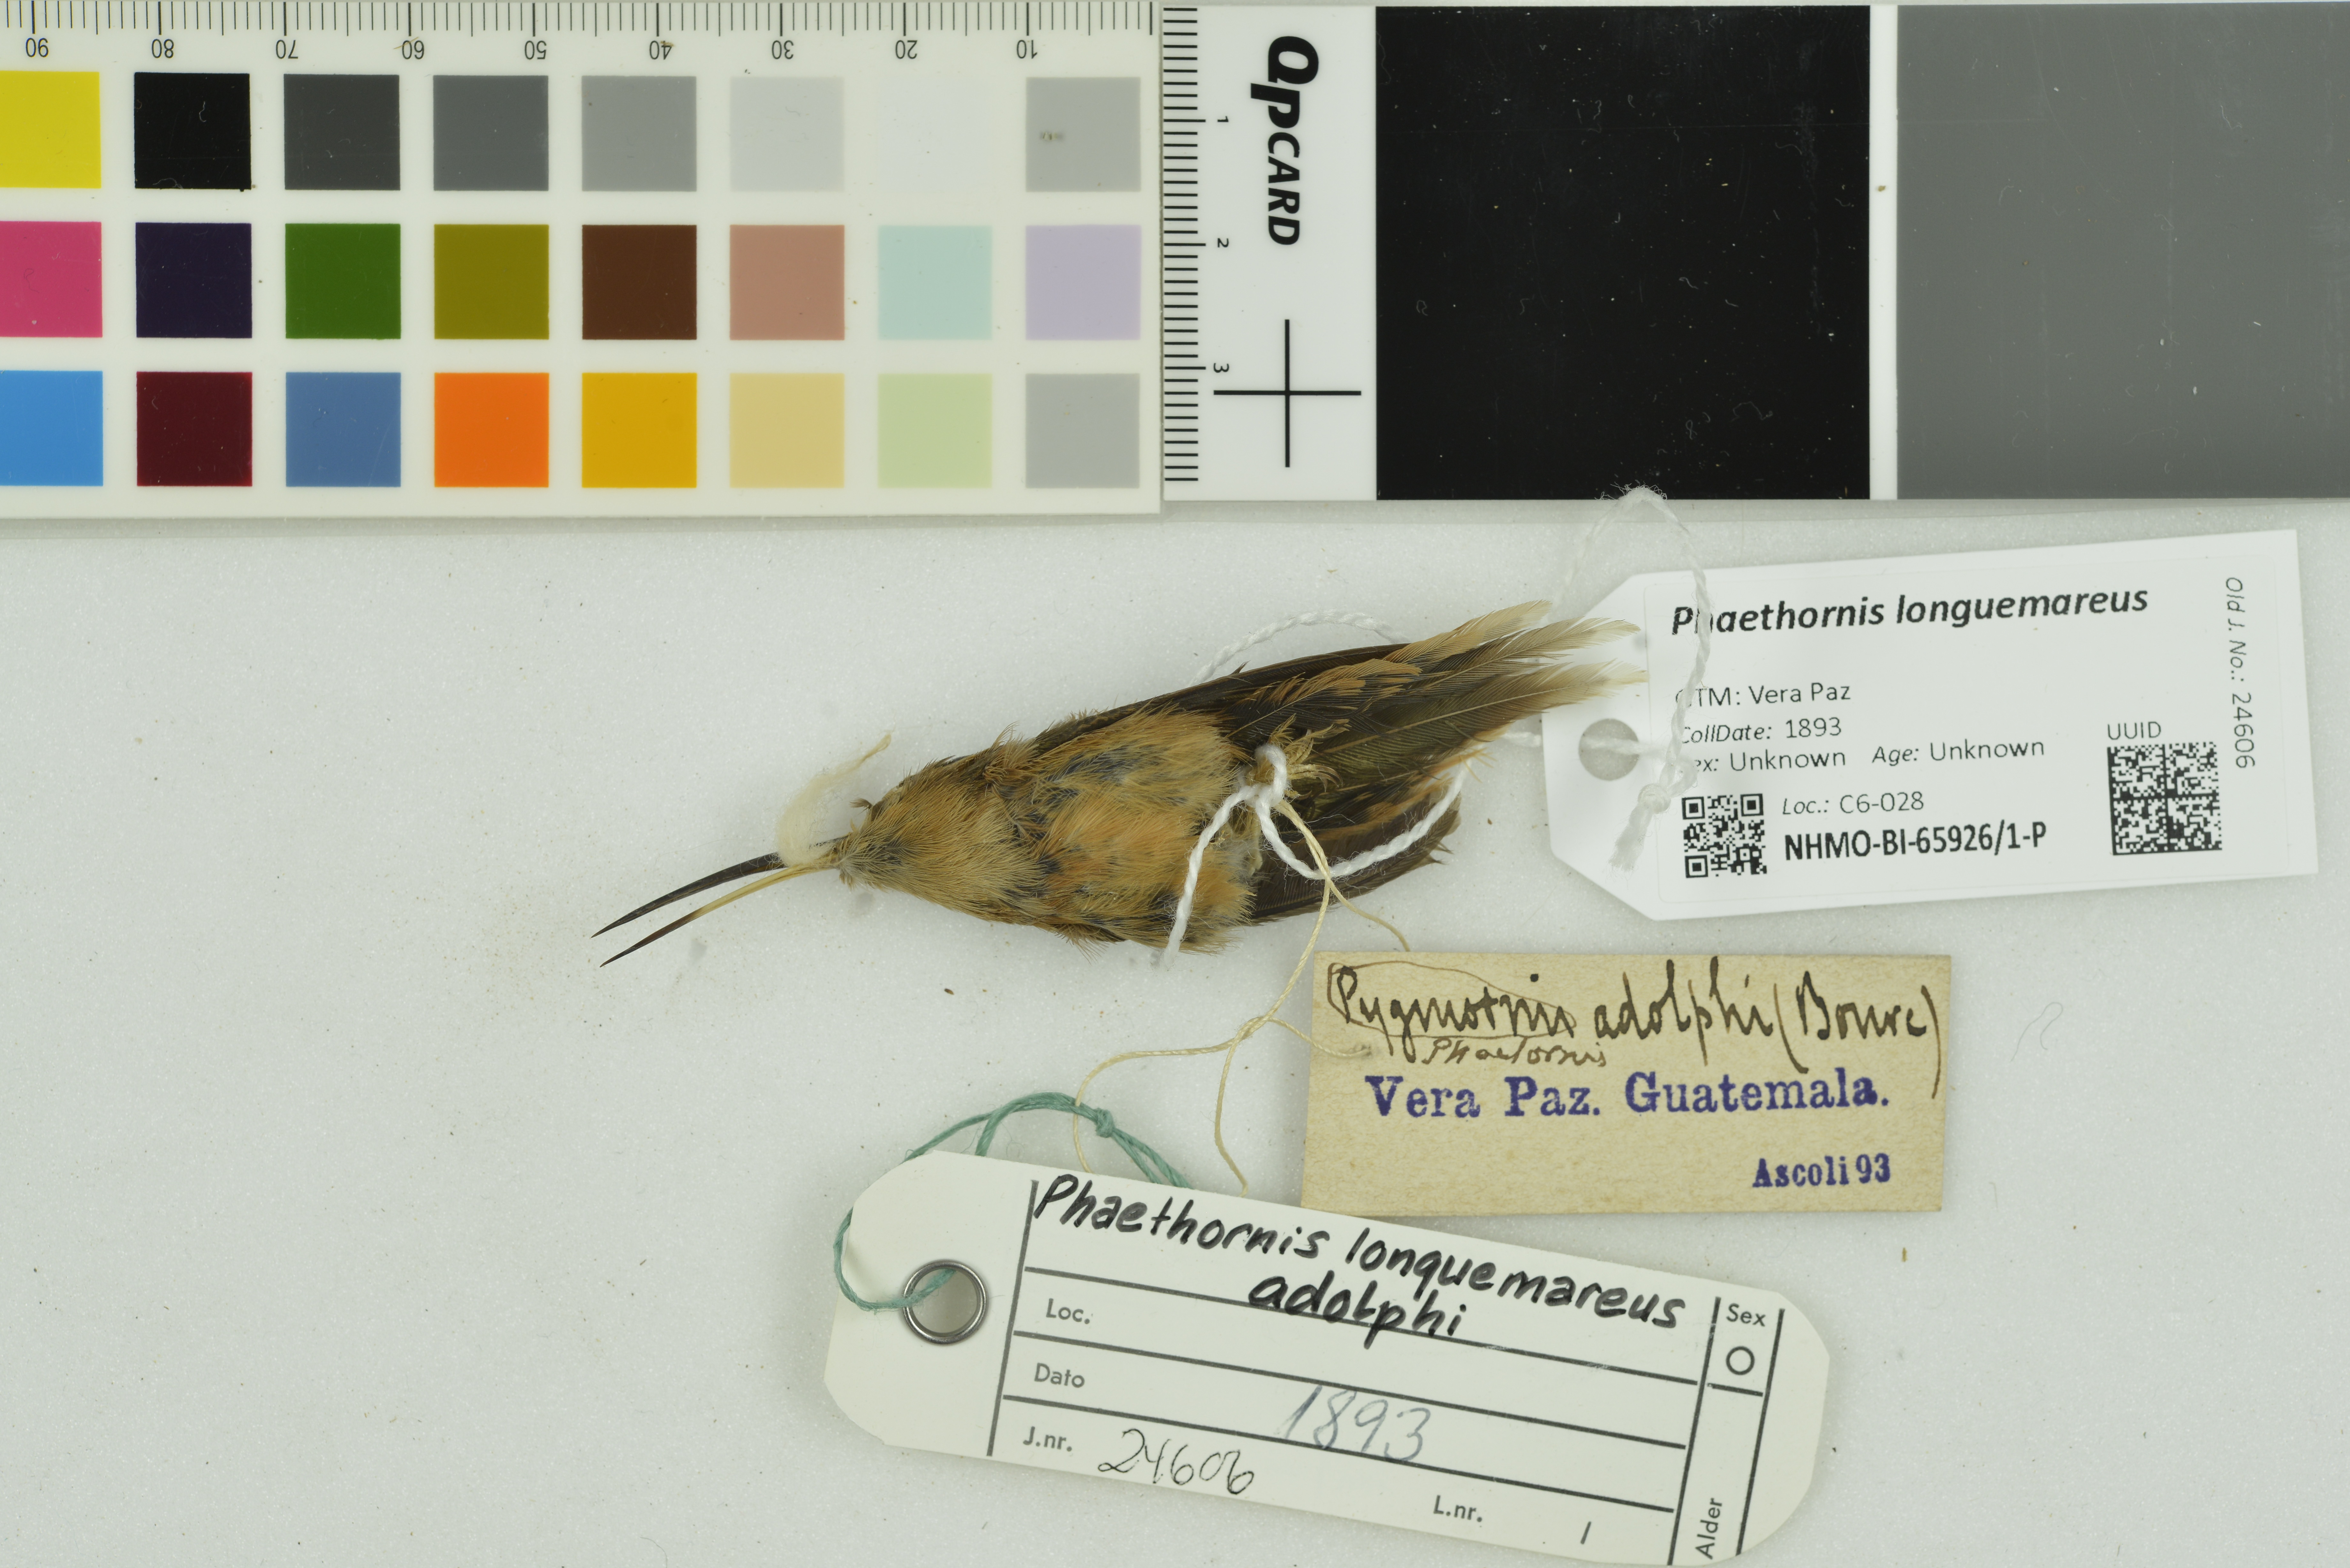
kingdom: Animalia
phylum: Chordata
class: Aves
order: Apodiformes
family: Trochilidae
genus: Phaethornis
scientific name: Phaethornis longuemareus
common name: Little hermit
